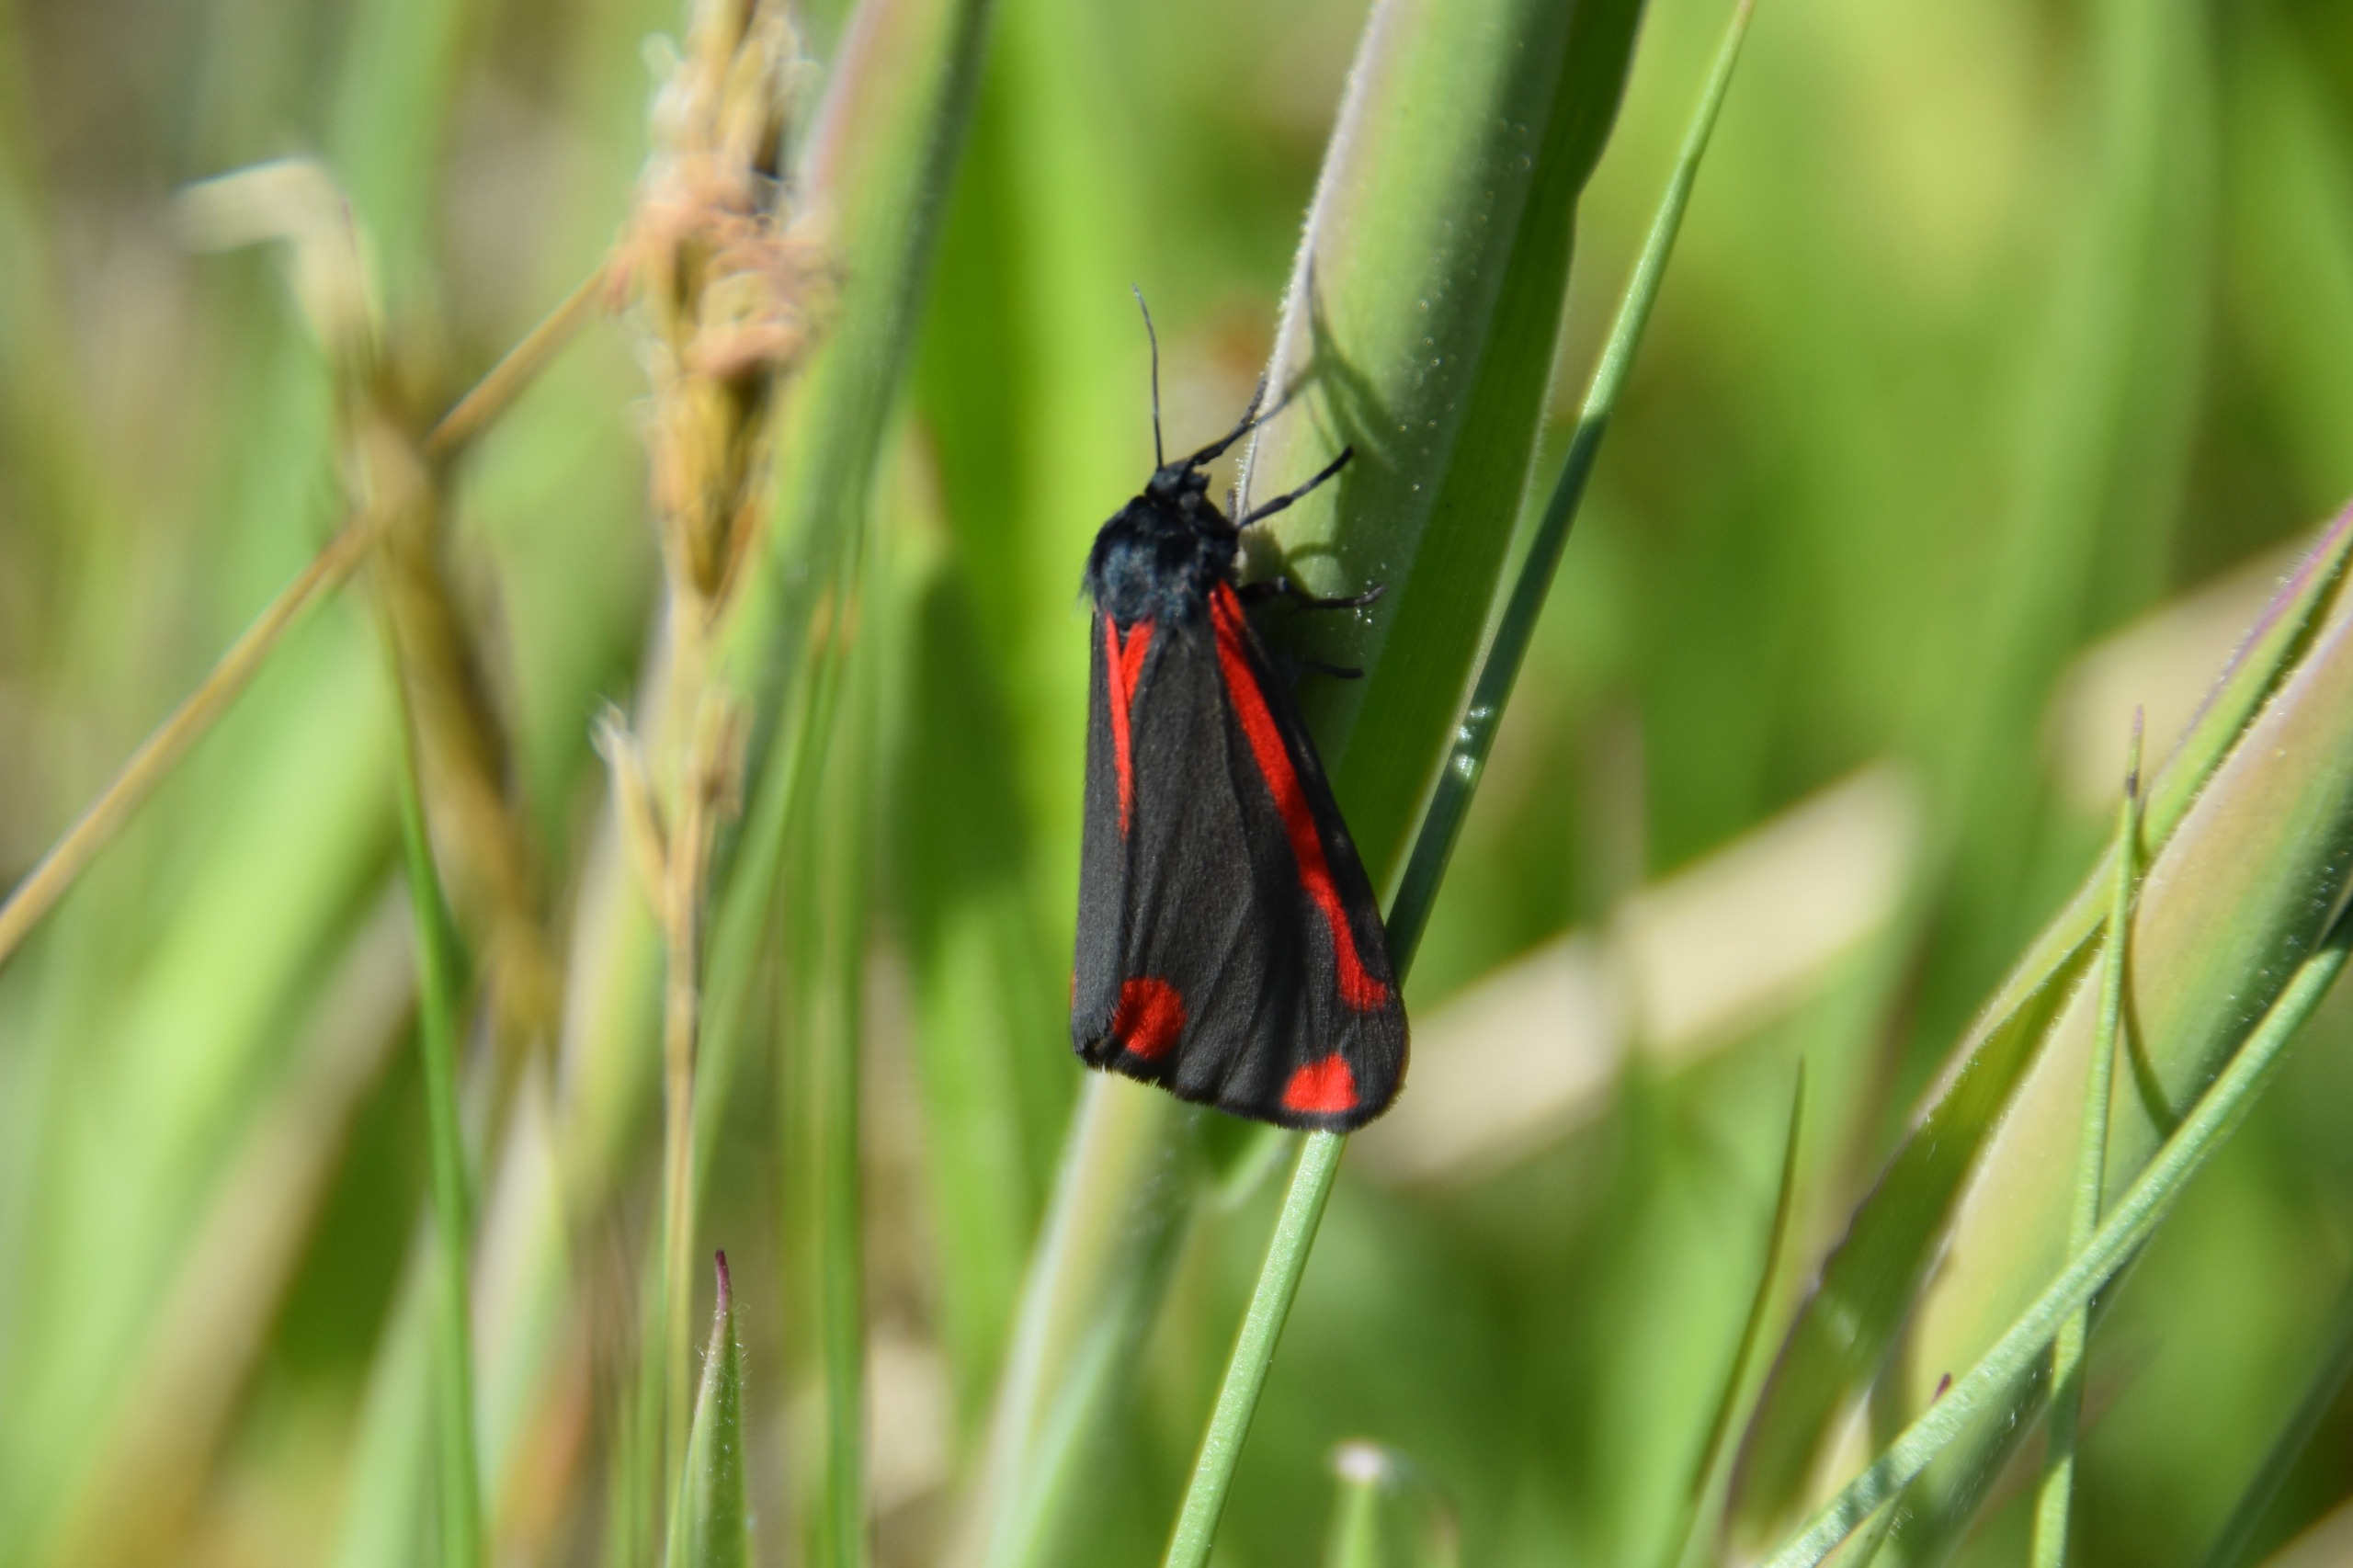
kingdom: Animalia
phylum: Arthropoda
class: Insecta
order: Lepidoptera
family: Erebidae
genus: Tyria
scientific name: Tyria jacobaeae
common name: Blodplet
